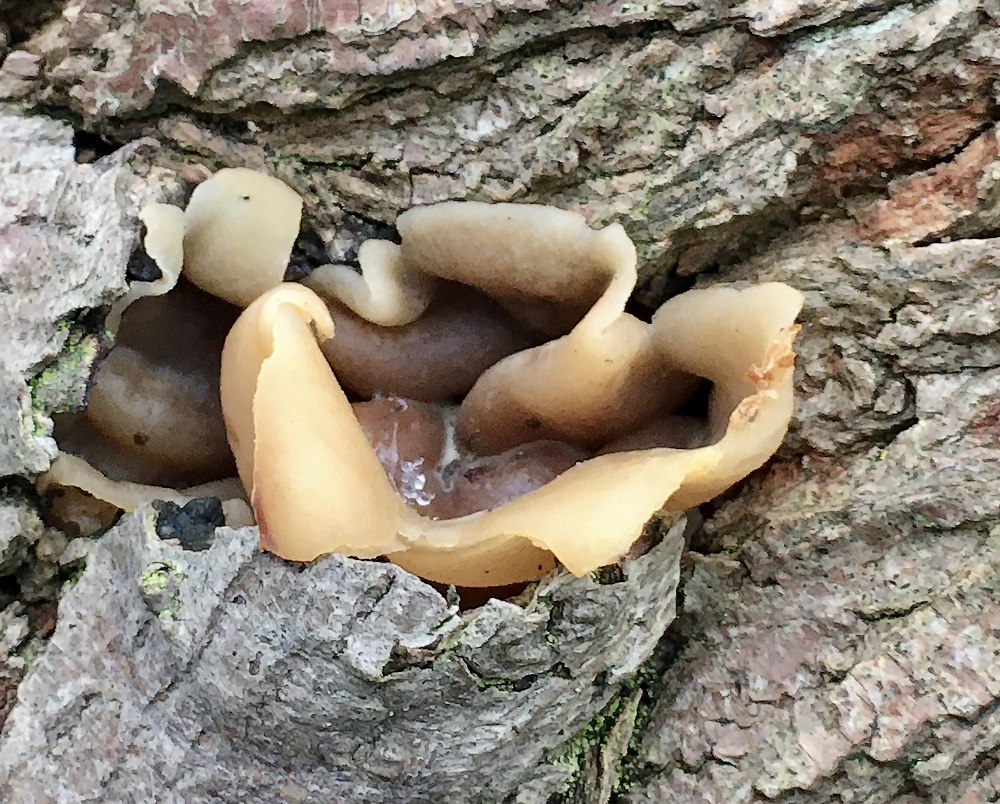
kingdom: Fungi
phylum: Ascomycota
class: Pezizomycetes
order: Pezizales
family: Pezizaceae
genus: Peziza
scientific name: Peziza varia
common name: Ved-bægersvamp
